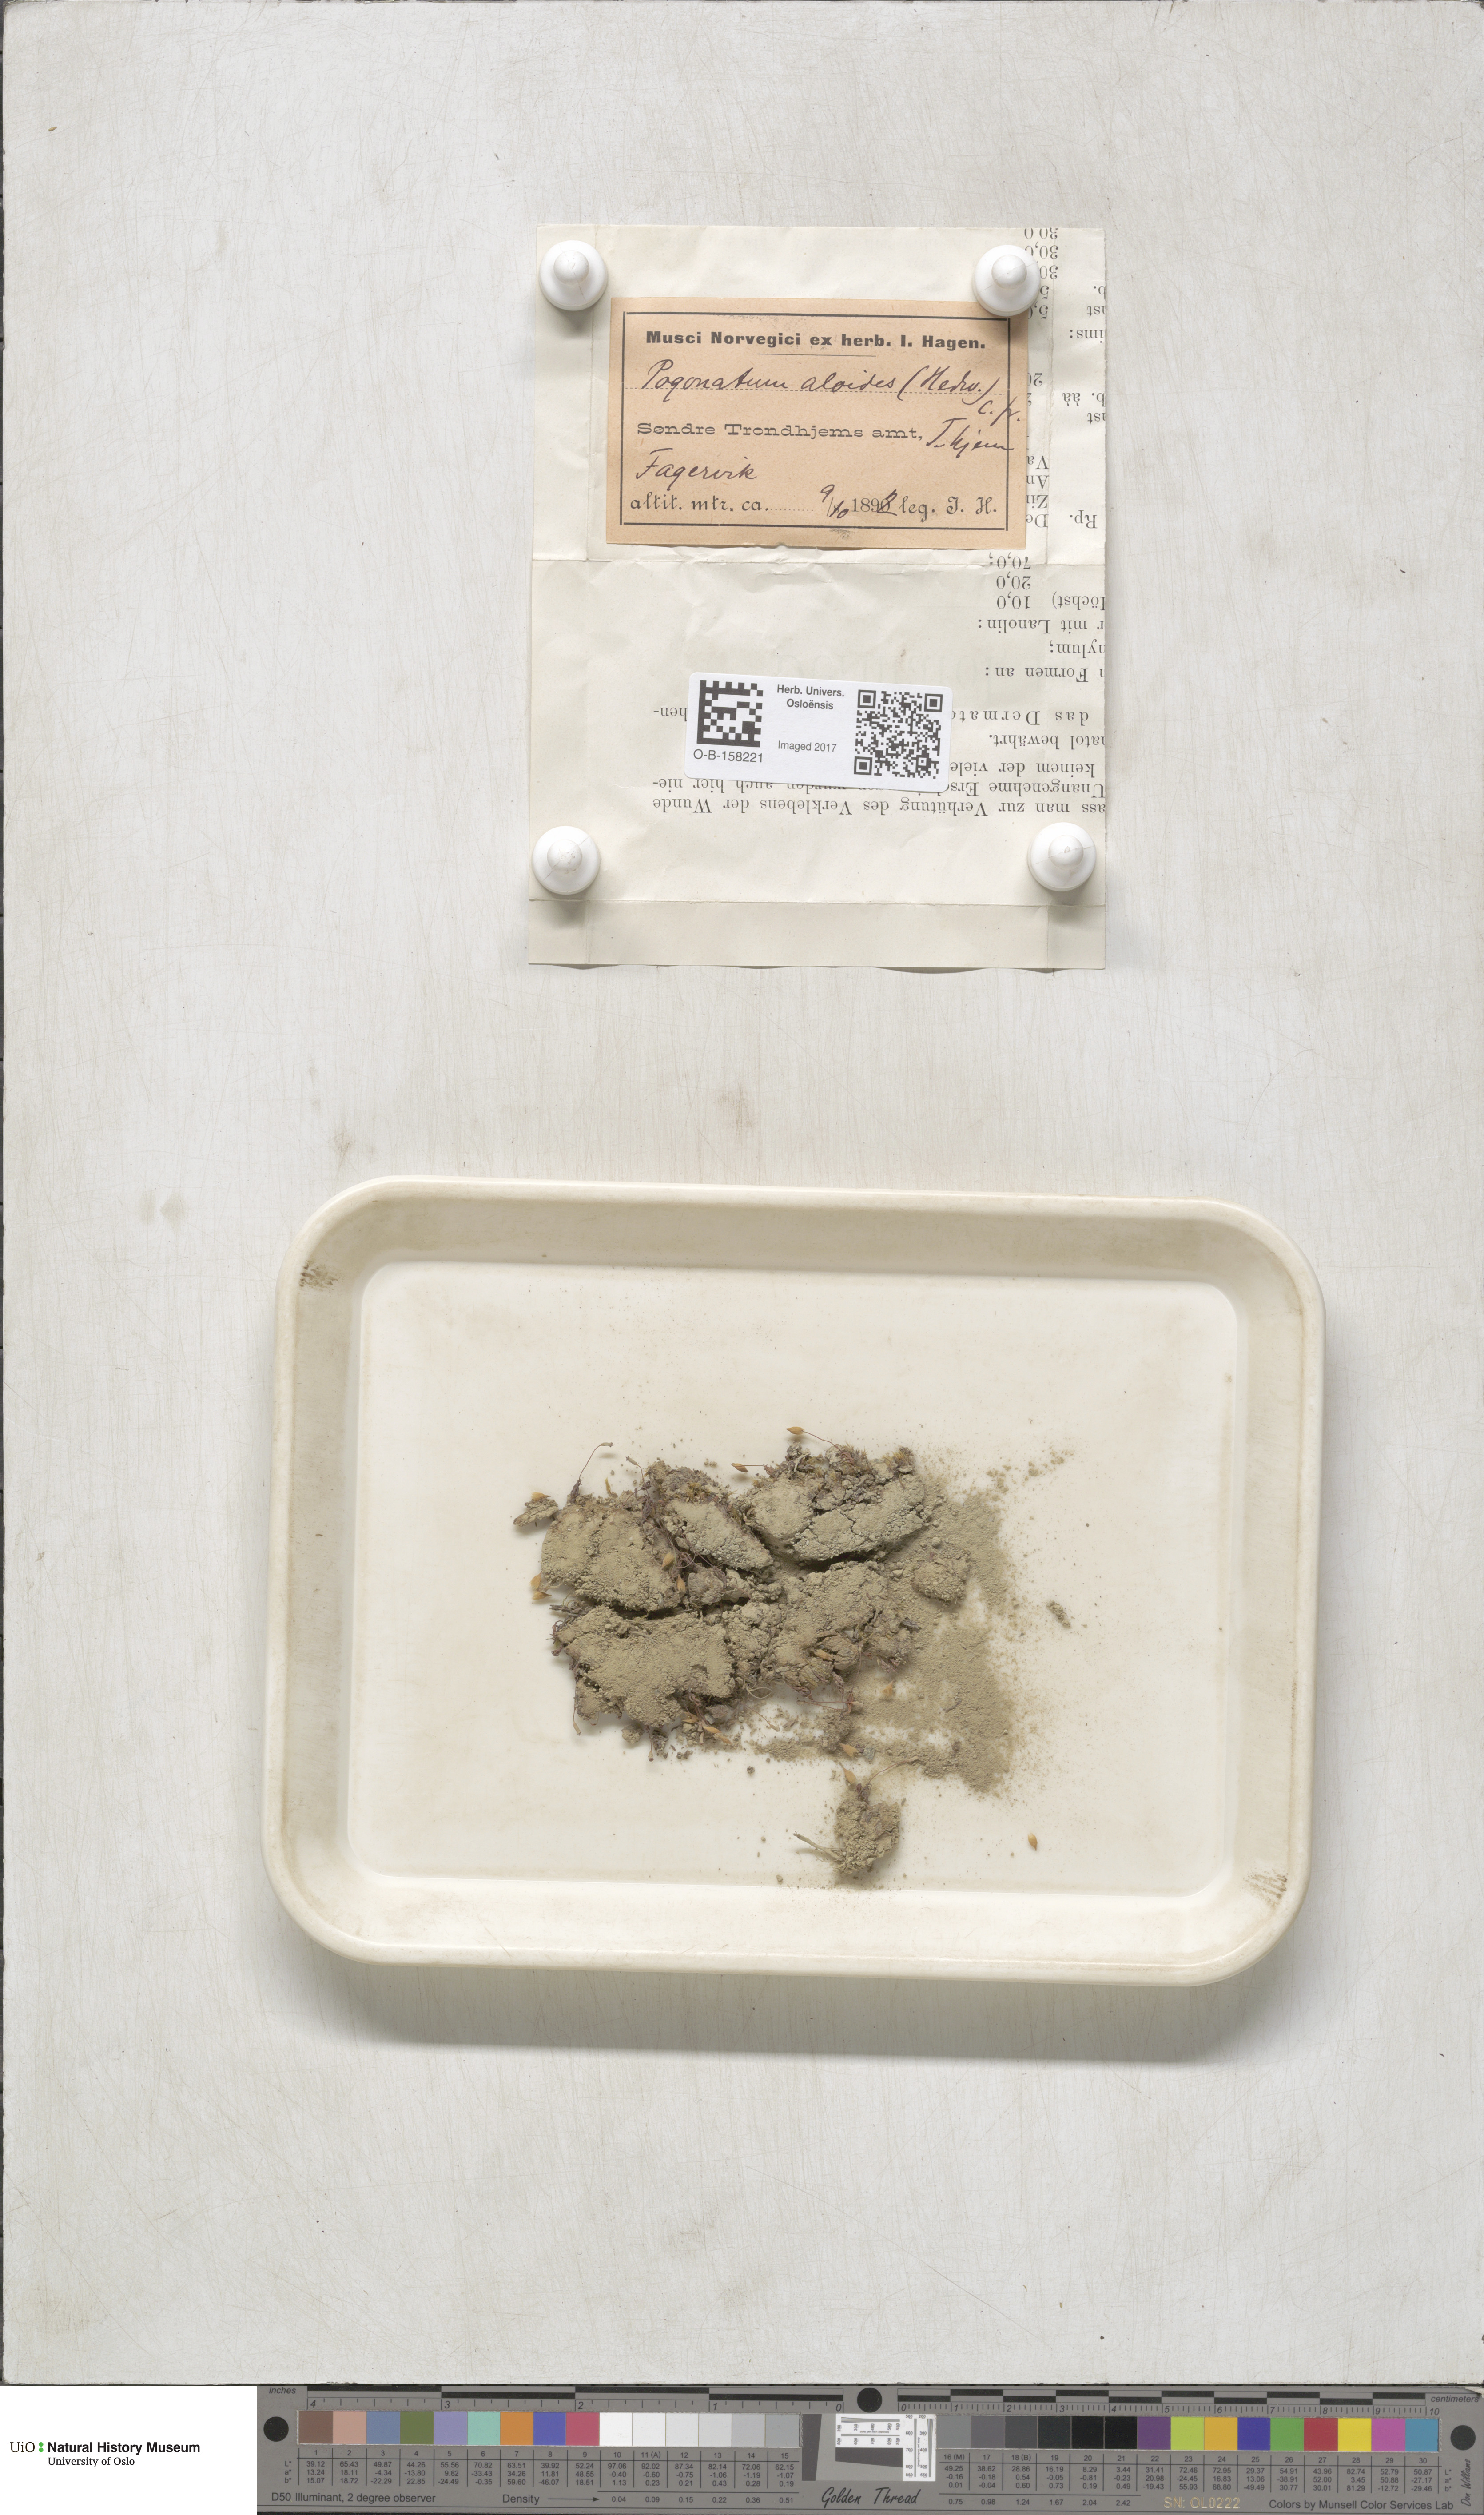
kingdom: Plantae
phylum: Bryophyta
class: Polytrichopsida
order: Polytrichales
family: Polytrichaceae
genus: Pogonatum
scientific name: Pogonatum aloides
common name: Aloe haircap
